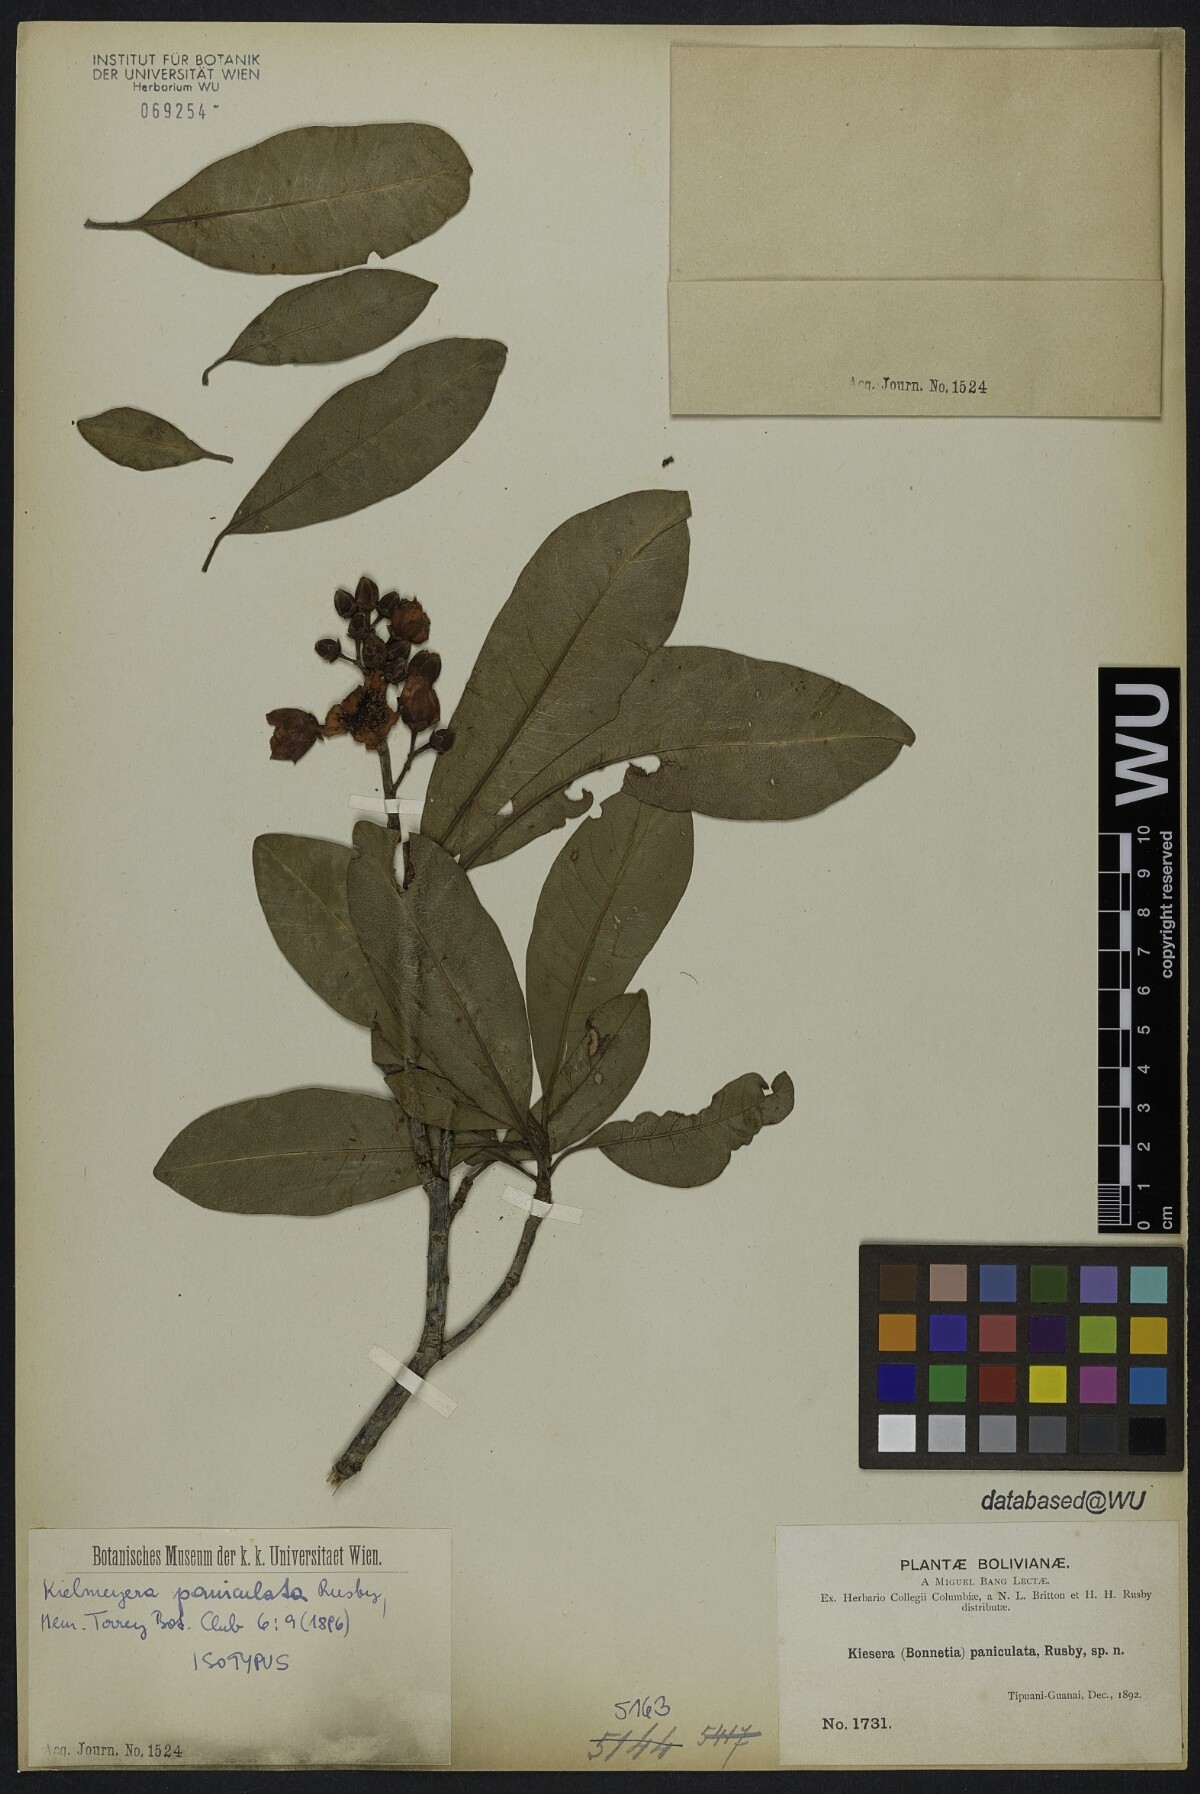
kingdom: Plantae
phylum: Tracheophyta
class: Magnoliopsida
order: Malpighiales
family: Calophyllaceae
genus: Kielmeyera
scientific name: Kielmeyera paniculata
